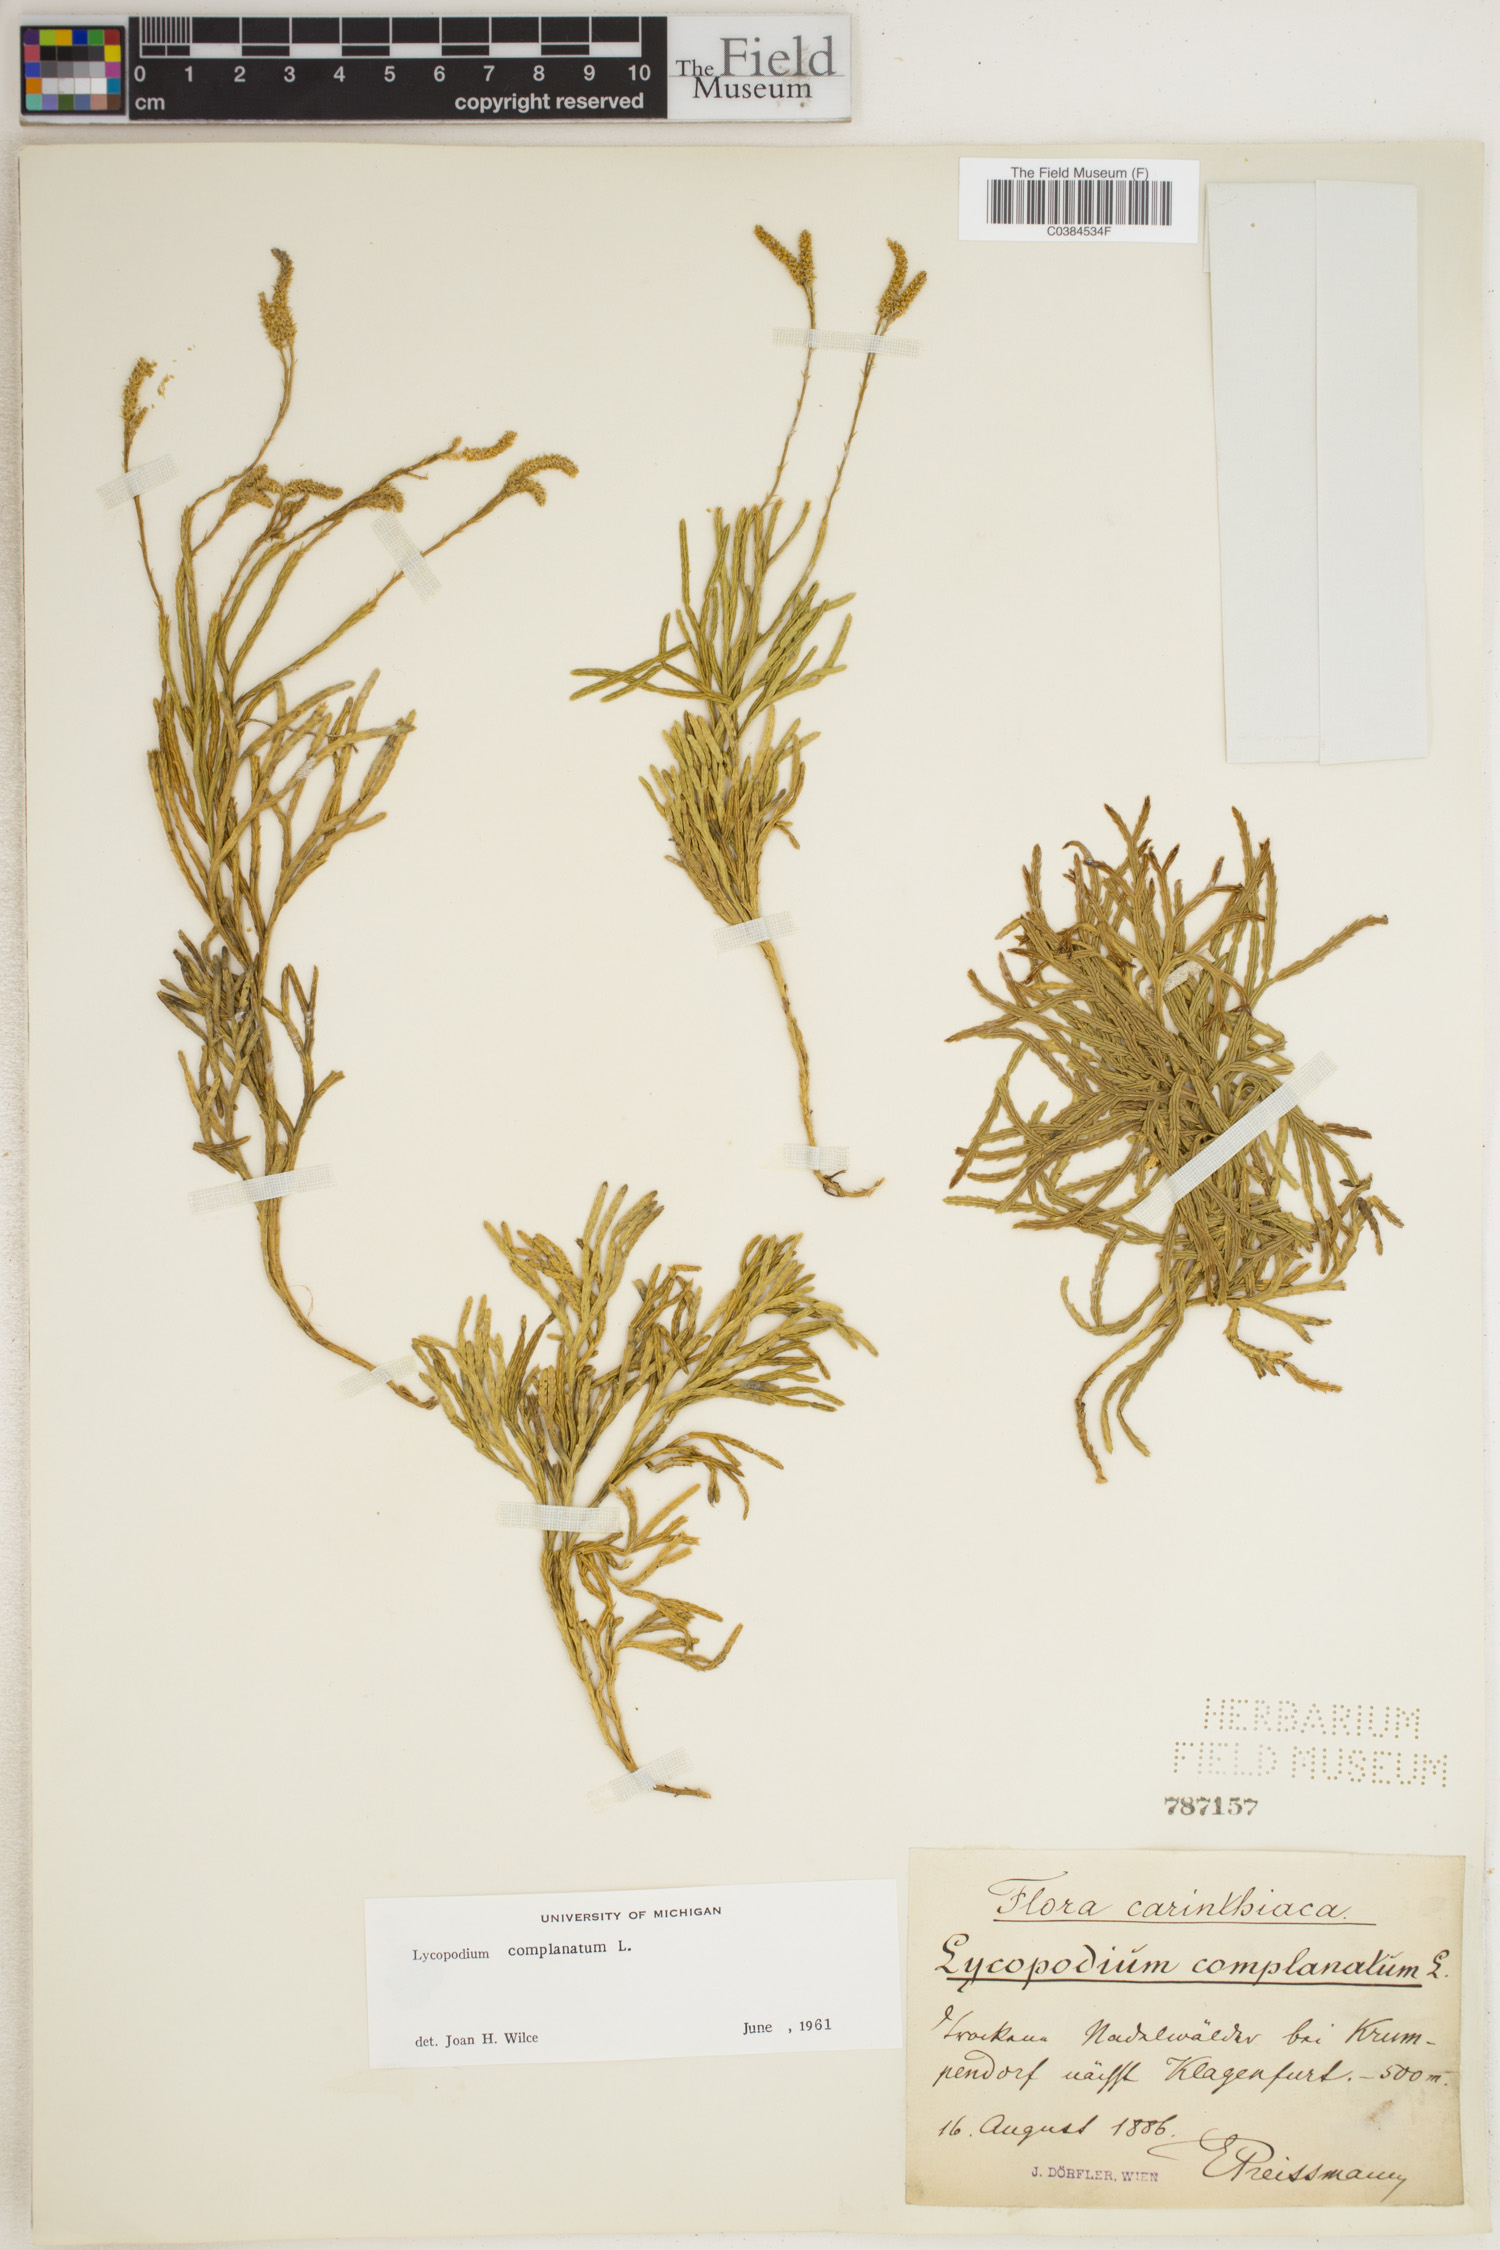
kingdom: Plantae
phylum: Tracheophyta
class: Lycopodiopsida
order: Lycopodiales
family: Lycopodiaceae
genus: Diphasiastrum
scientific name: Diphasiastrum complanatum
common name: Northern running-pine
